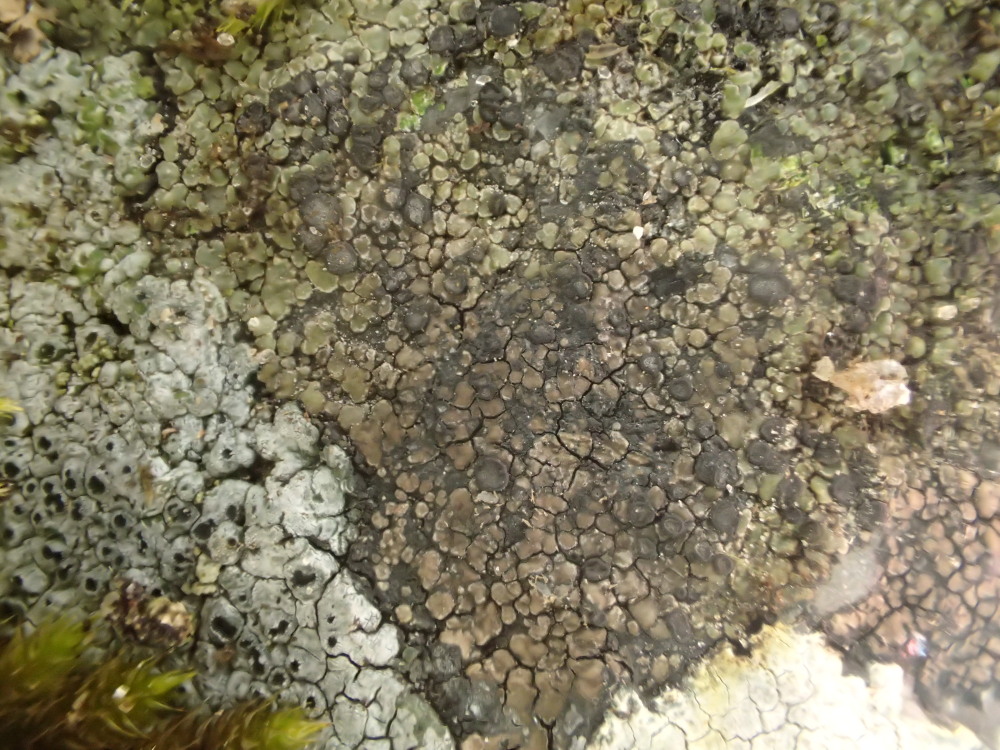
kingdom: Fungi
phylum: Ascomycota
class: Lecanoromycetes
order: Lecideales
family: Lecideaceae
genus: Lecidea
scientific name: Lecidea fuscoatra
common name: rudret skivelav
